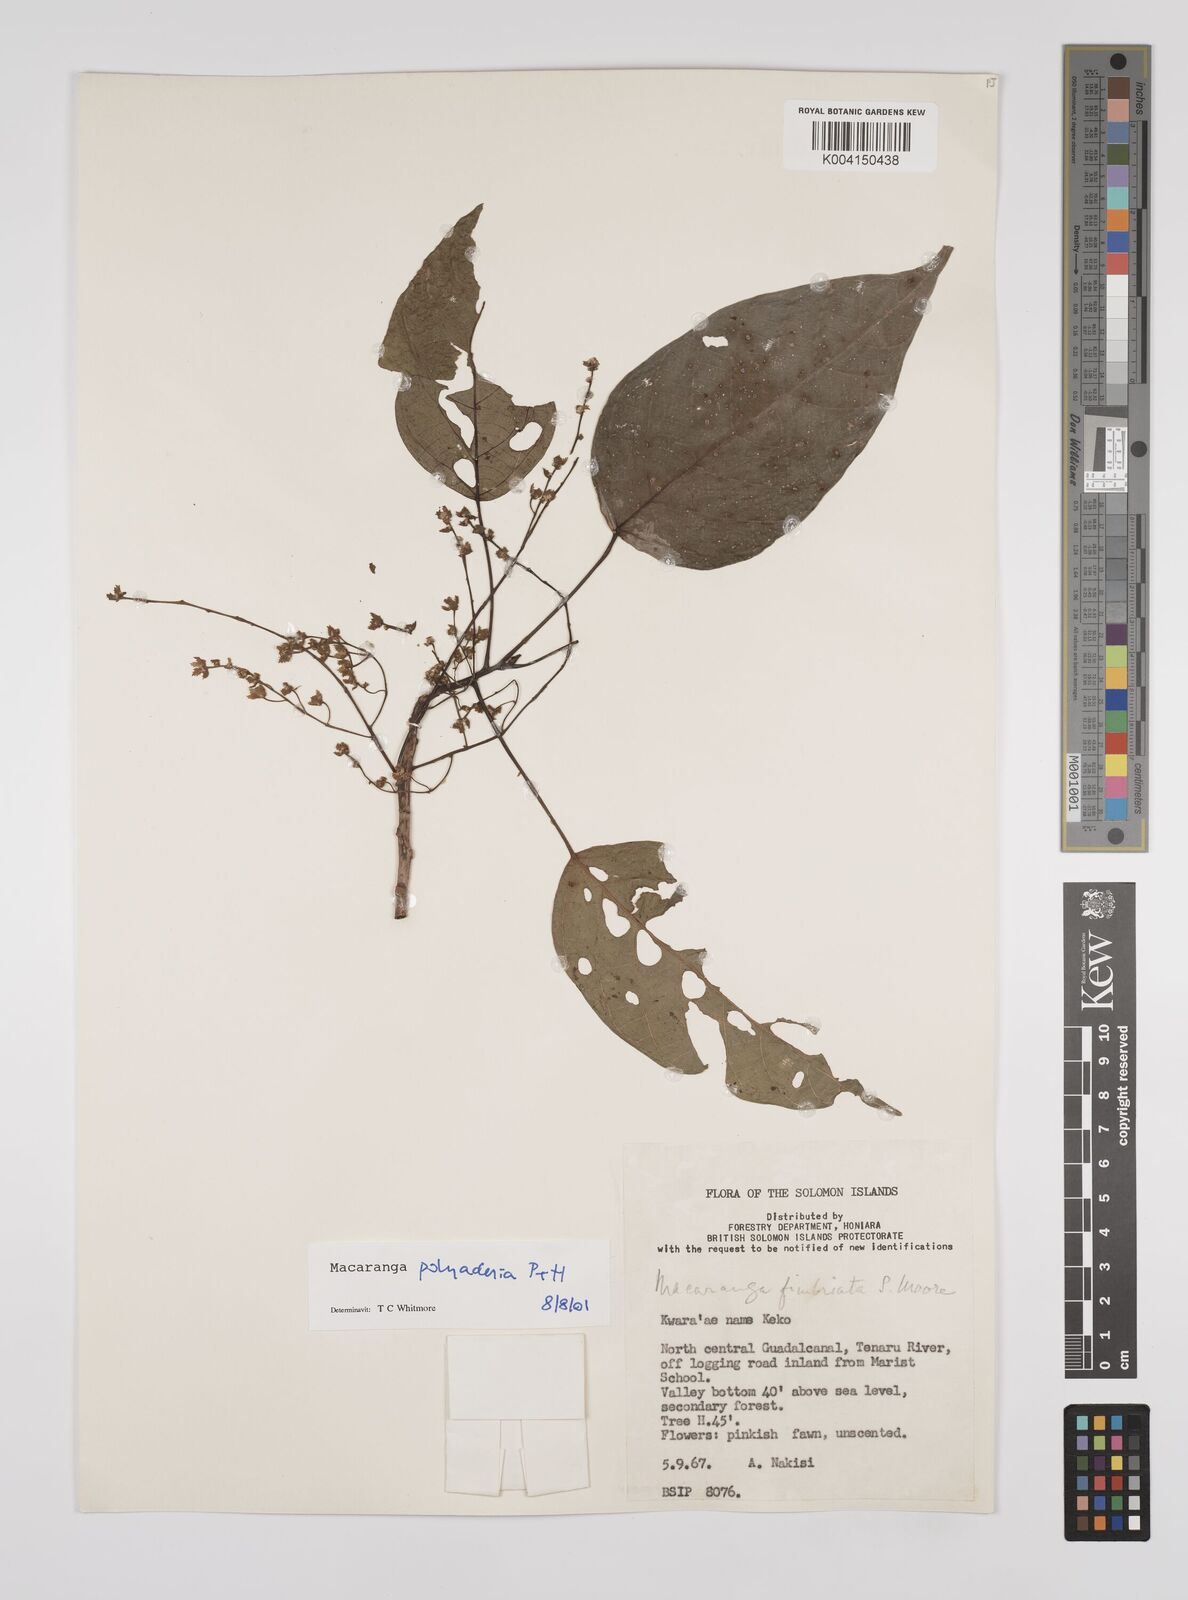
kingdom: Plantae
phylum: Tracheophyta
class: Magnoliopsida
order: Malpighiales
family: Euphorbiaceae
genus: Macaranga
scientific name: Macaranga polyadenia
